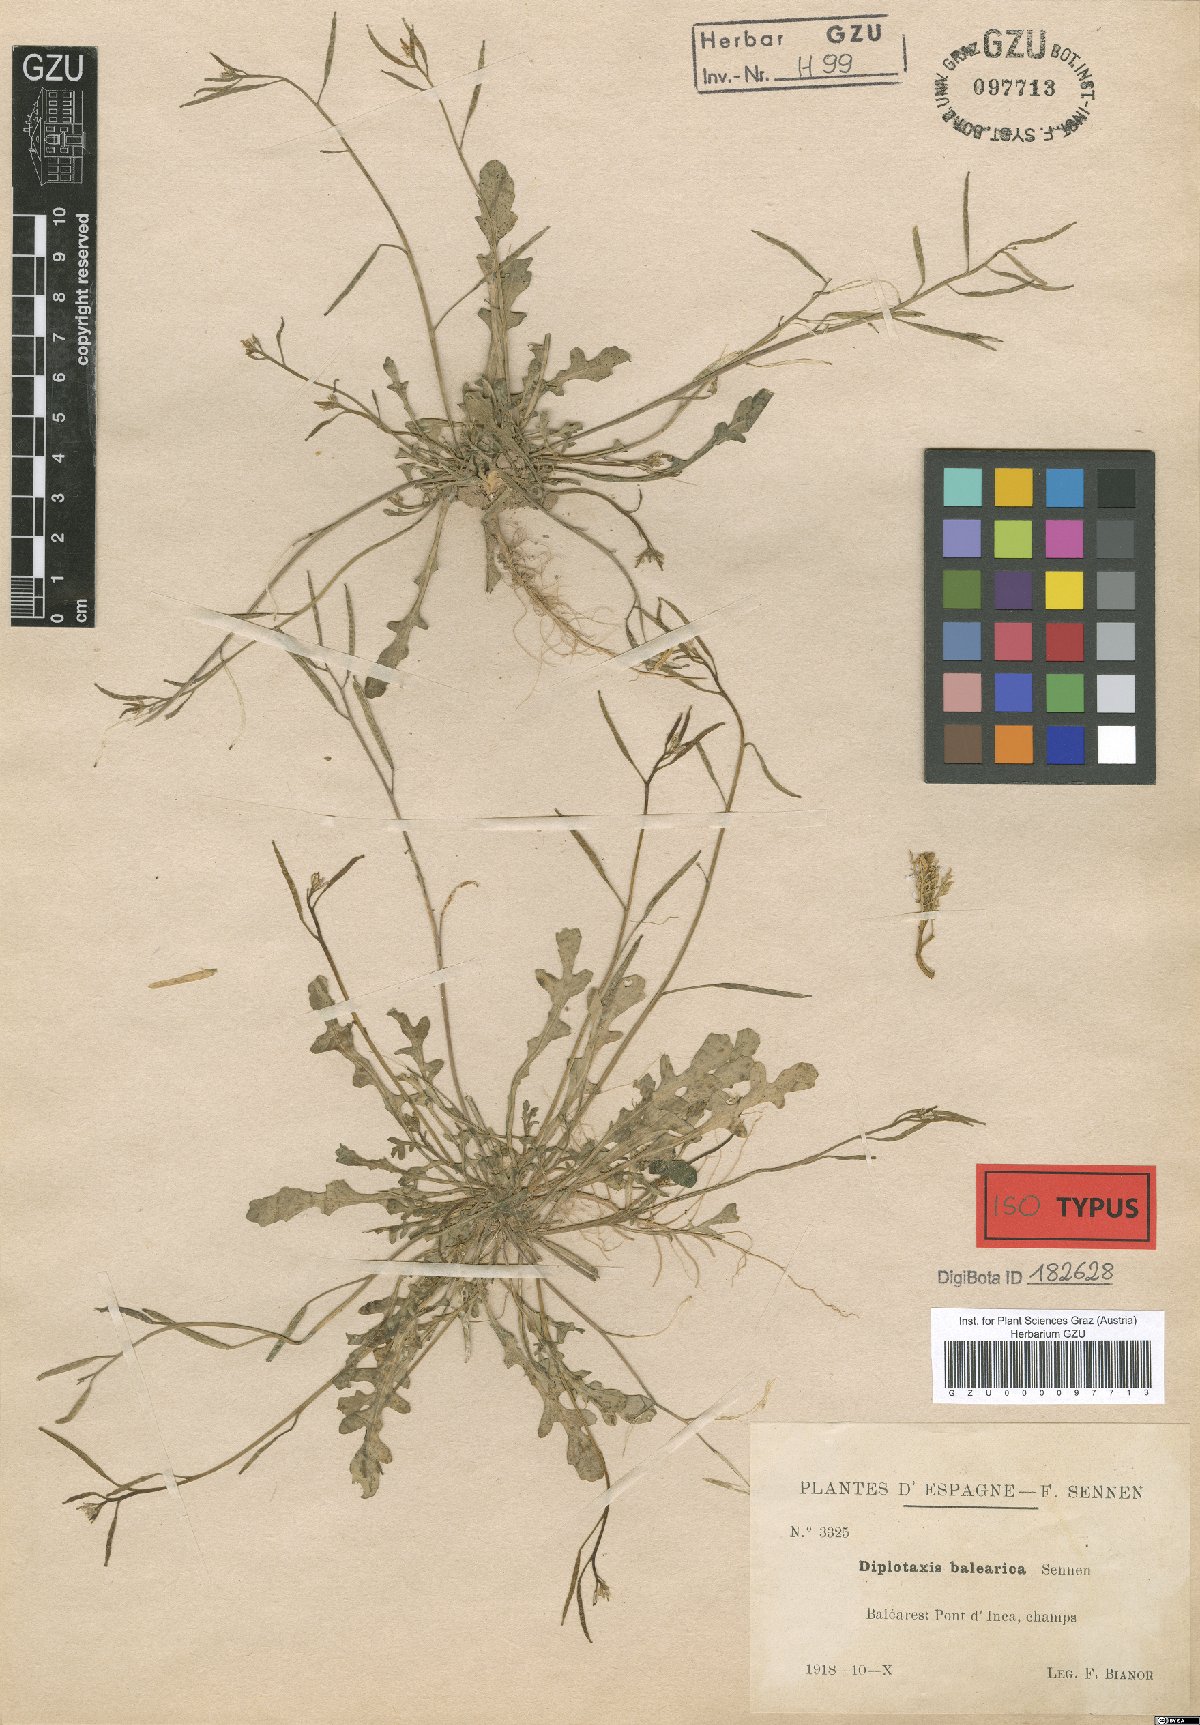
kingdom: Plantae
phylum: Tracheophyta
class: Magnoliopsida
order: Brassicales
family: Brassicaceae
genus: Diplotaxis
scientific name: Diplotaxis viminea
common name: Vineyard wall rocket
